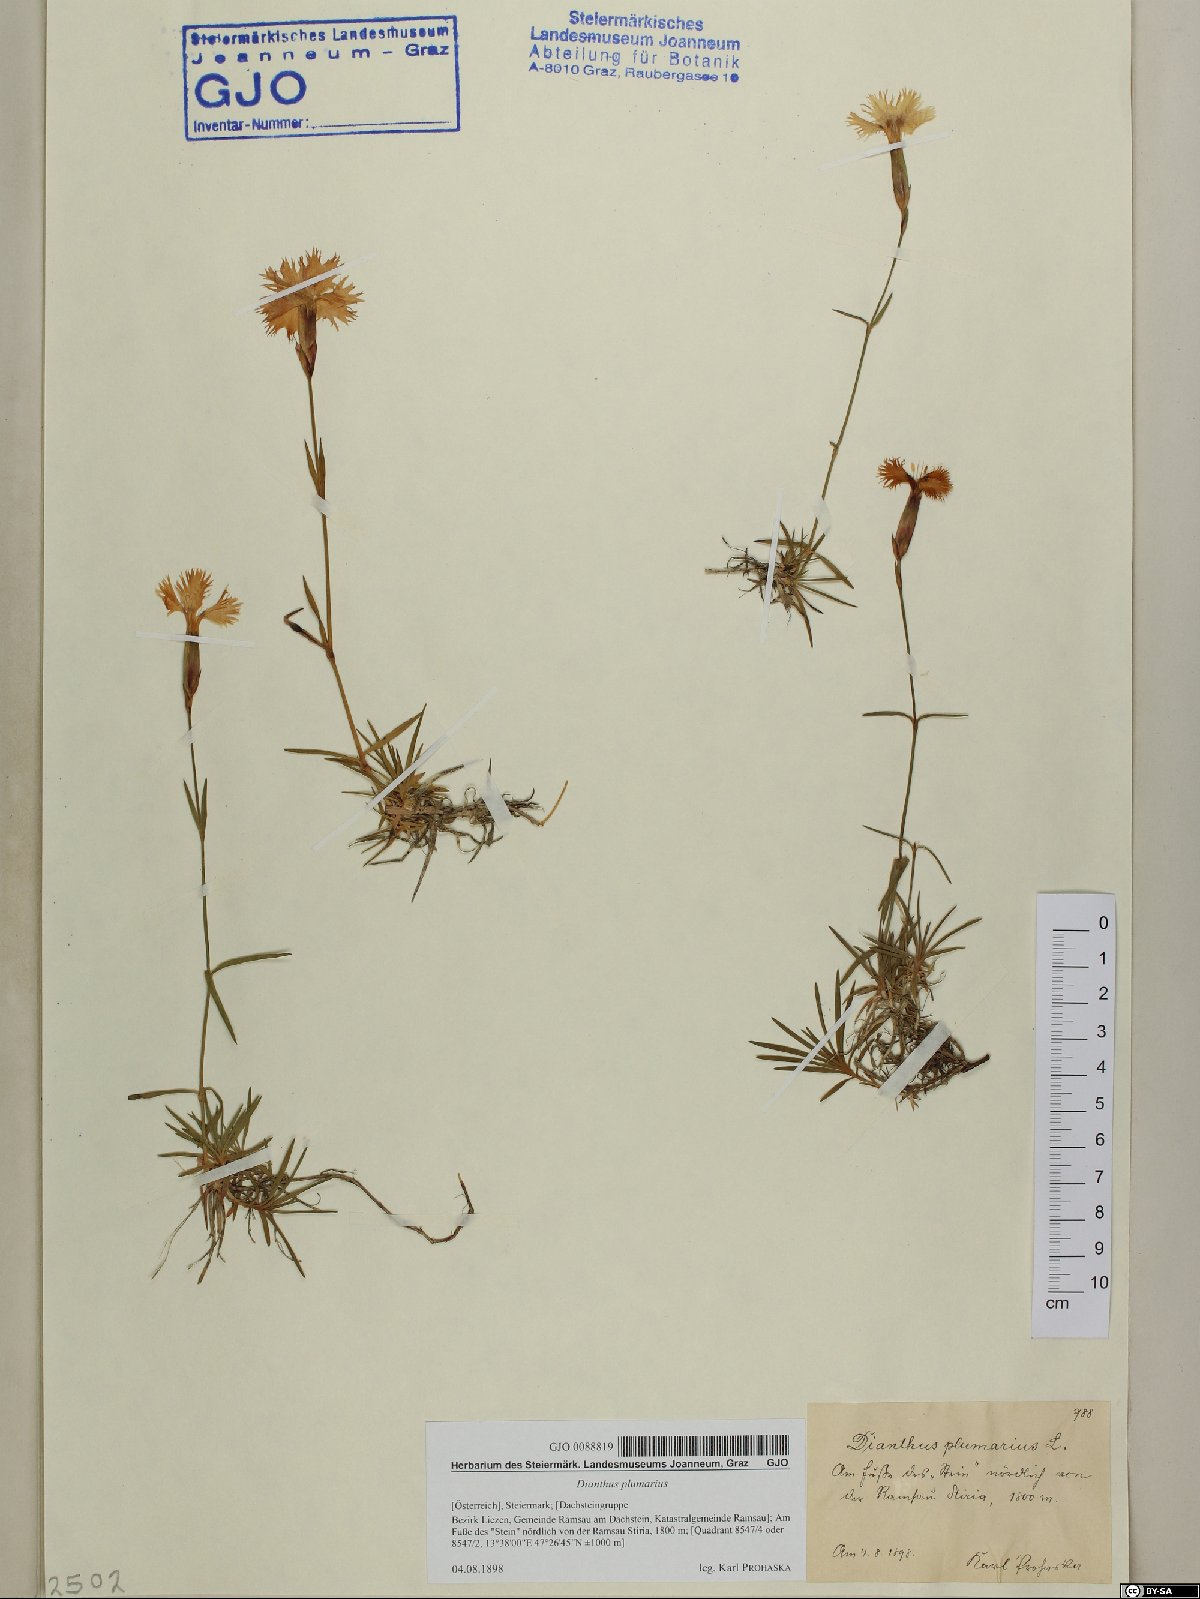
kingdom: Plantae
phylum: Tracheophyta
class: Magnoliopsida
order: Caryophyllales
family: Caryophyllaceae
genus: Dianthus
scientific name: Dianthus plumarius
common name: Pink
